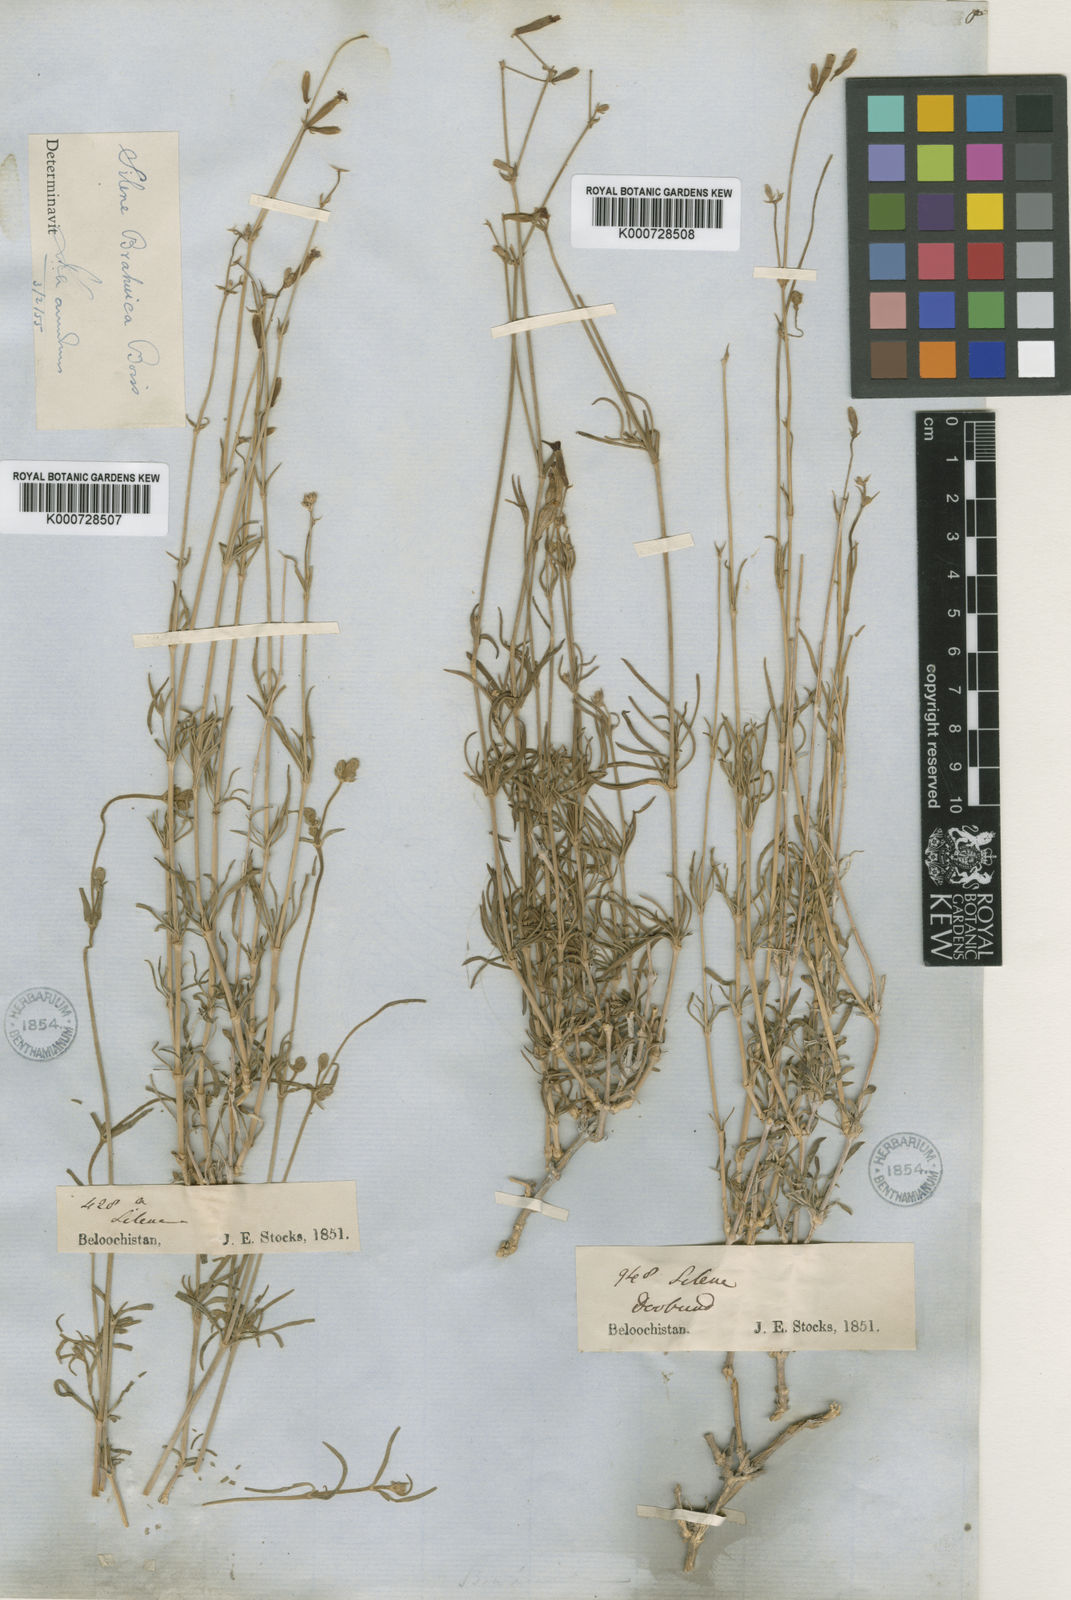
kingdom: Plantae
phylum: Tracheophyta
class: Magnoliopsida
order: Caryophyllales
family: Caryophyllaceae
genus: Silene
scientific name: Silene brahuica
